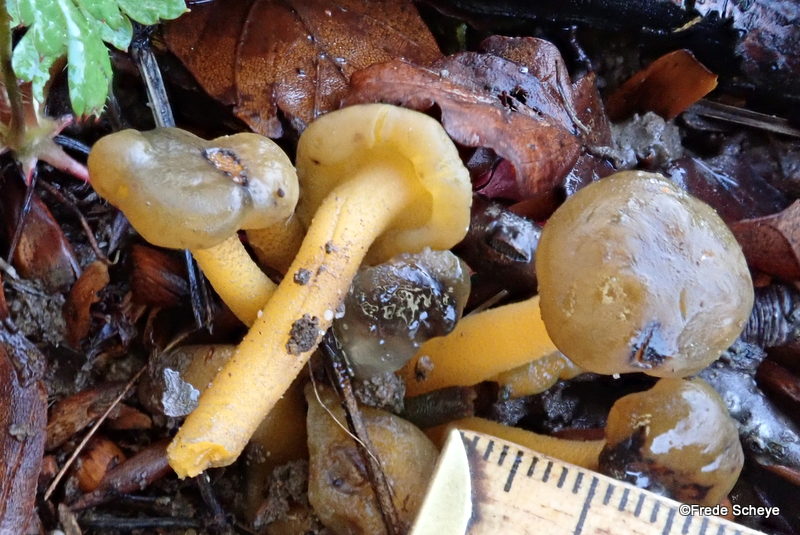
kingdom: Fungi
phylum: Ascomycota
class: Leotiomycetes
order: Leotiales
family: Leotiaceae
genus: Leotia
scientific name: Leotia lubrica
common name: ravsvamp
